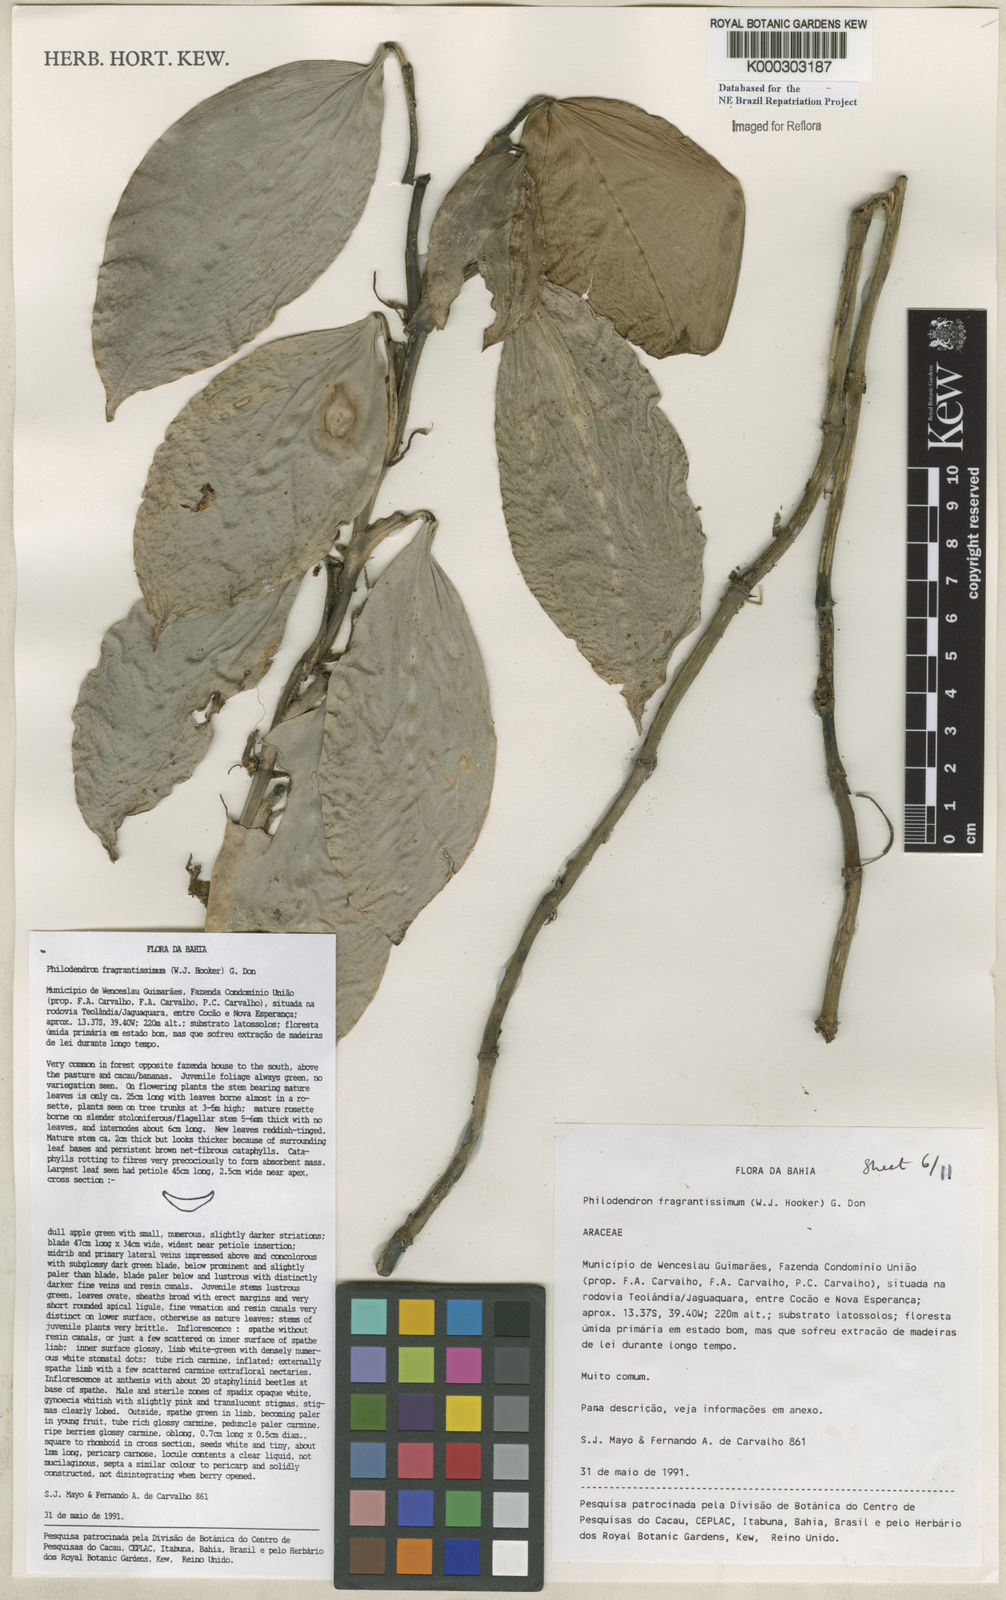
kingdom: Plantae
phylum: Tracheophyta
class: Liliopsida
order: Alismatales
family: Araceae
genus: Philodendron
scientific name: Philodendron fragrantissimum
